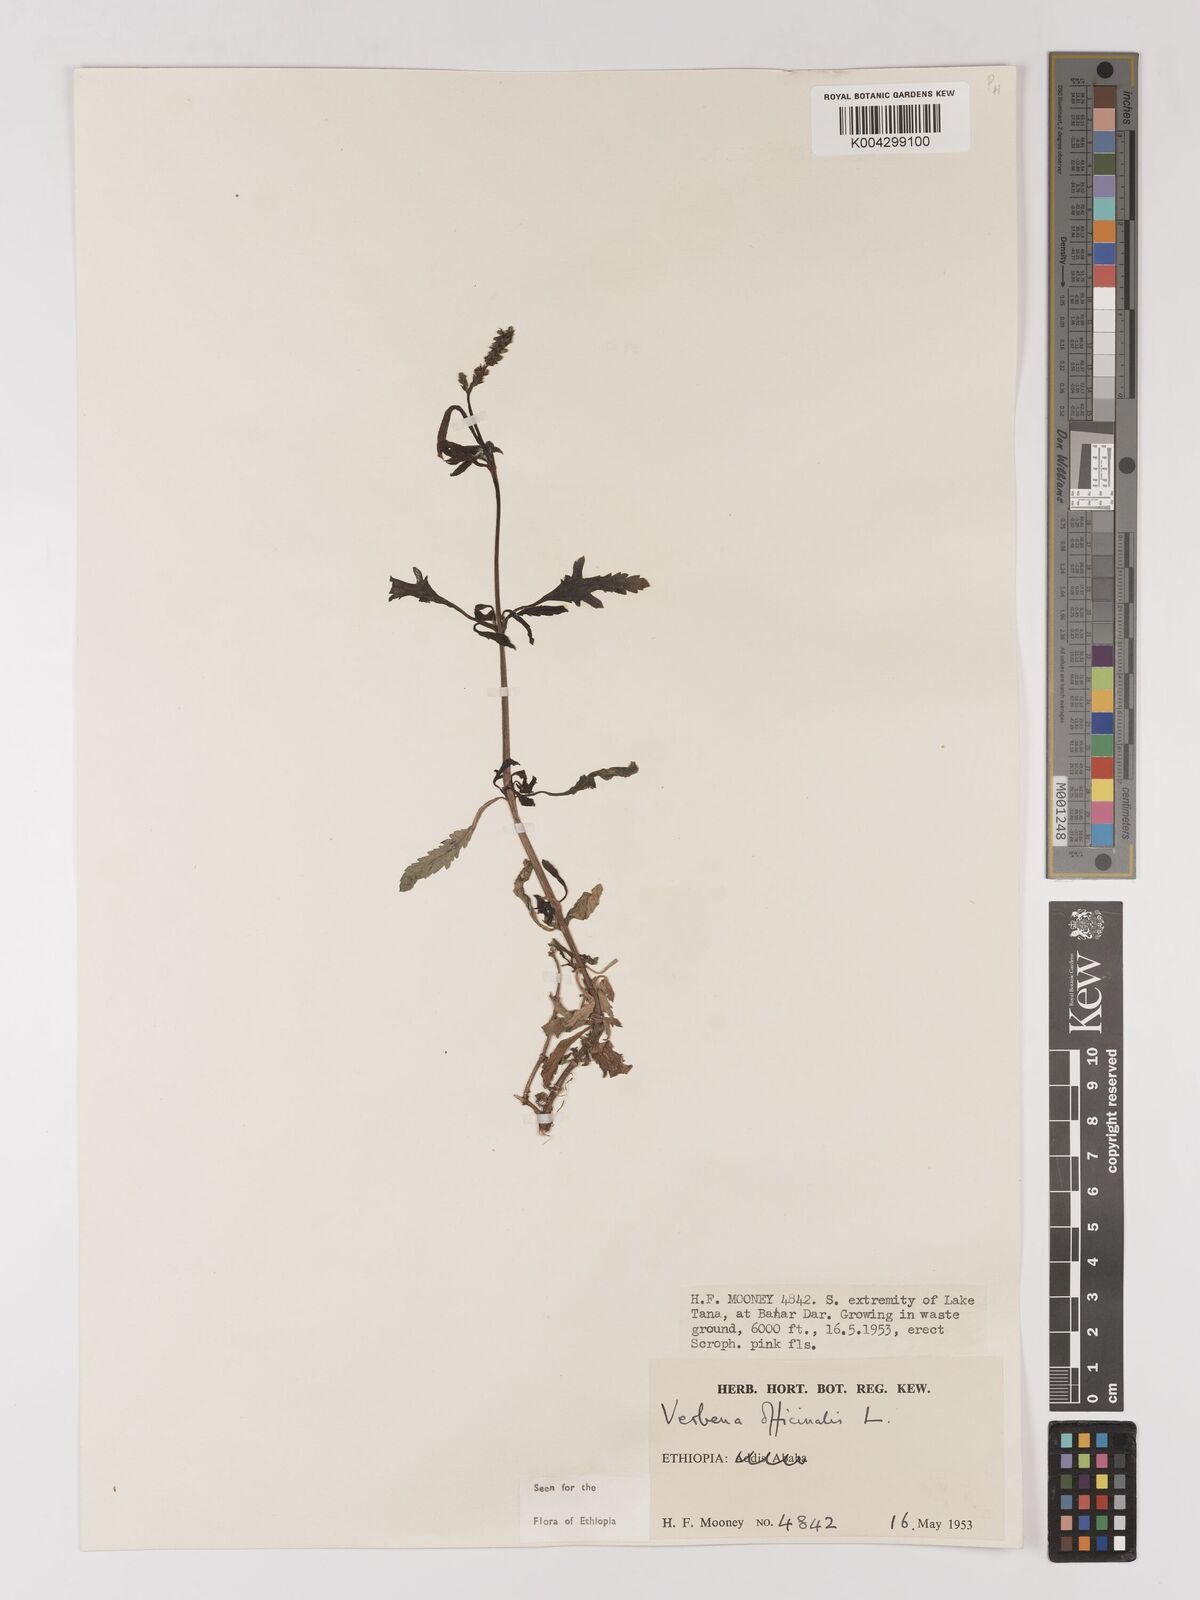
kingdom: Plantae
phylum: Tracheophyta
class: Magnoliopsida
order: Lamiales
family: Verbenaceae
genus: Verbena
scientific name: Verbena officinalis
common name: Vervain
